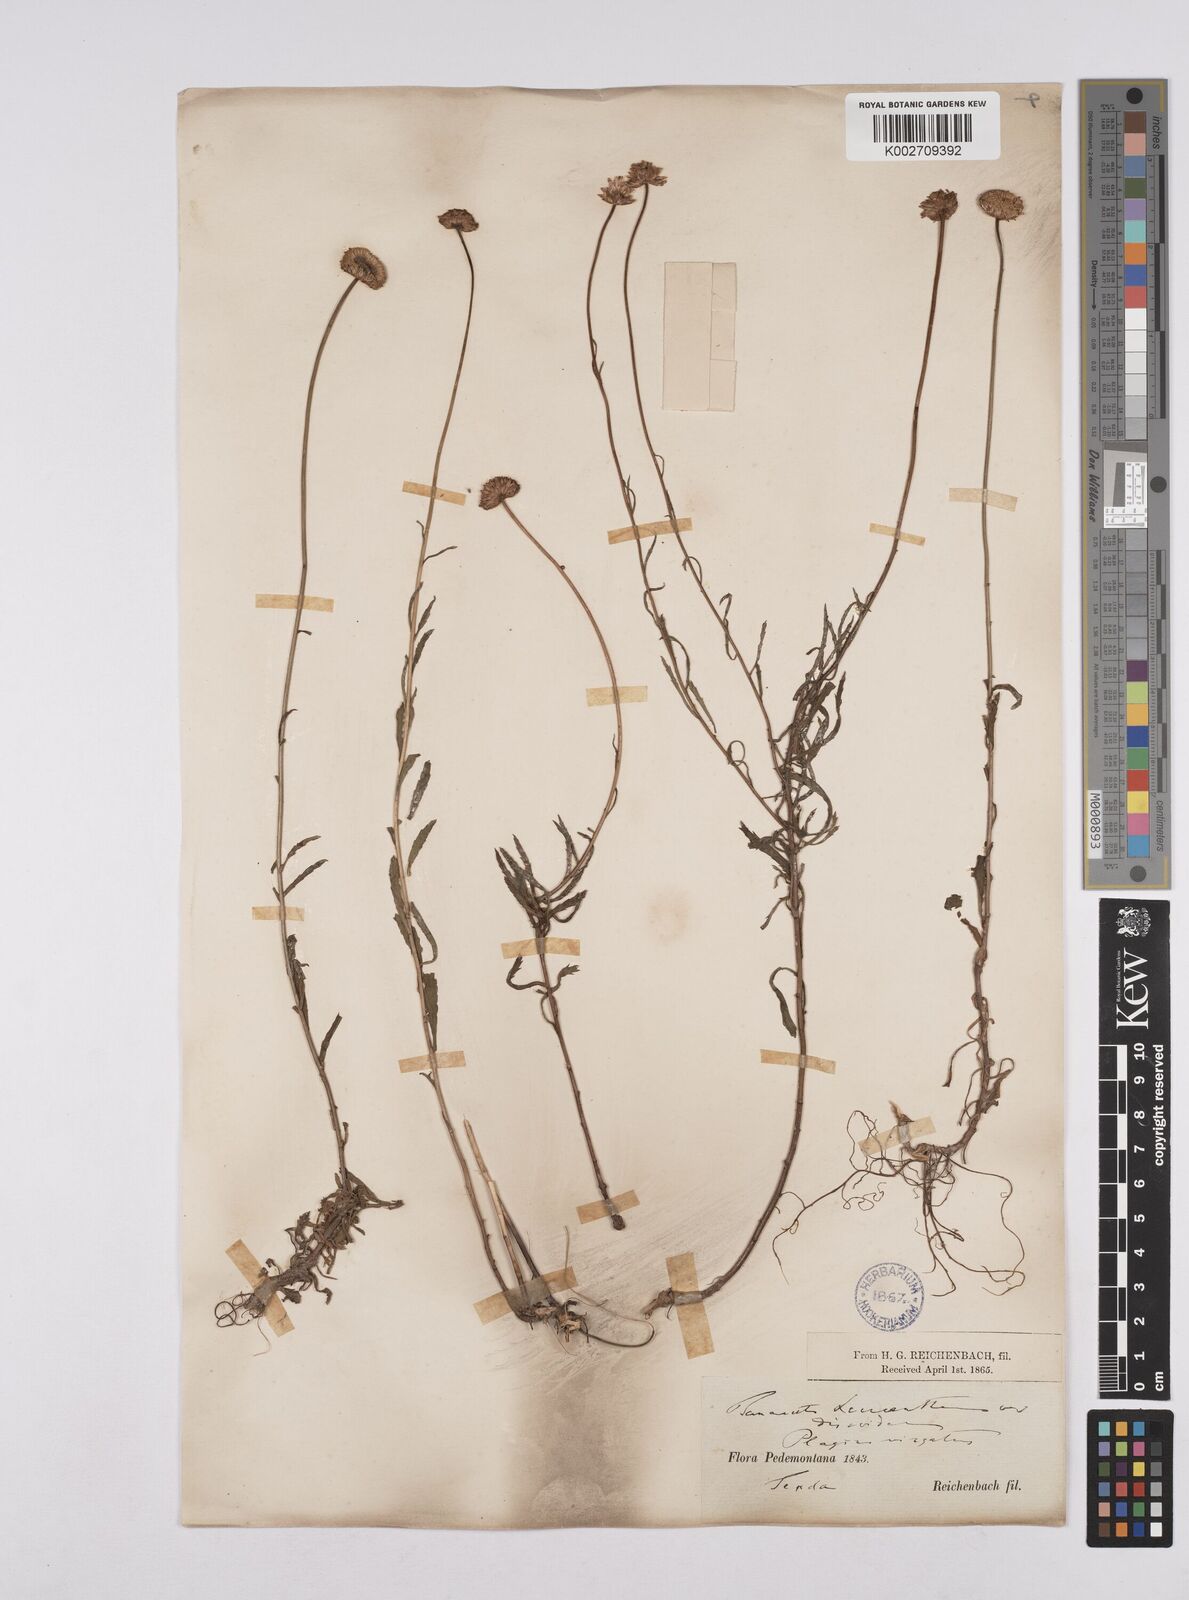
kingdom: Plantae
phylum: Tracheophyta
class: Magnoliopsida
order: Asterales
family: Asteraceae
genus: Leucanthemum
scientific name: Leucanthemum
